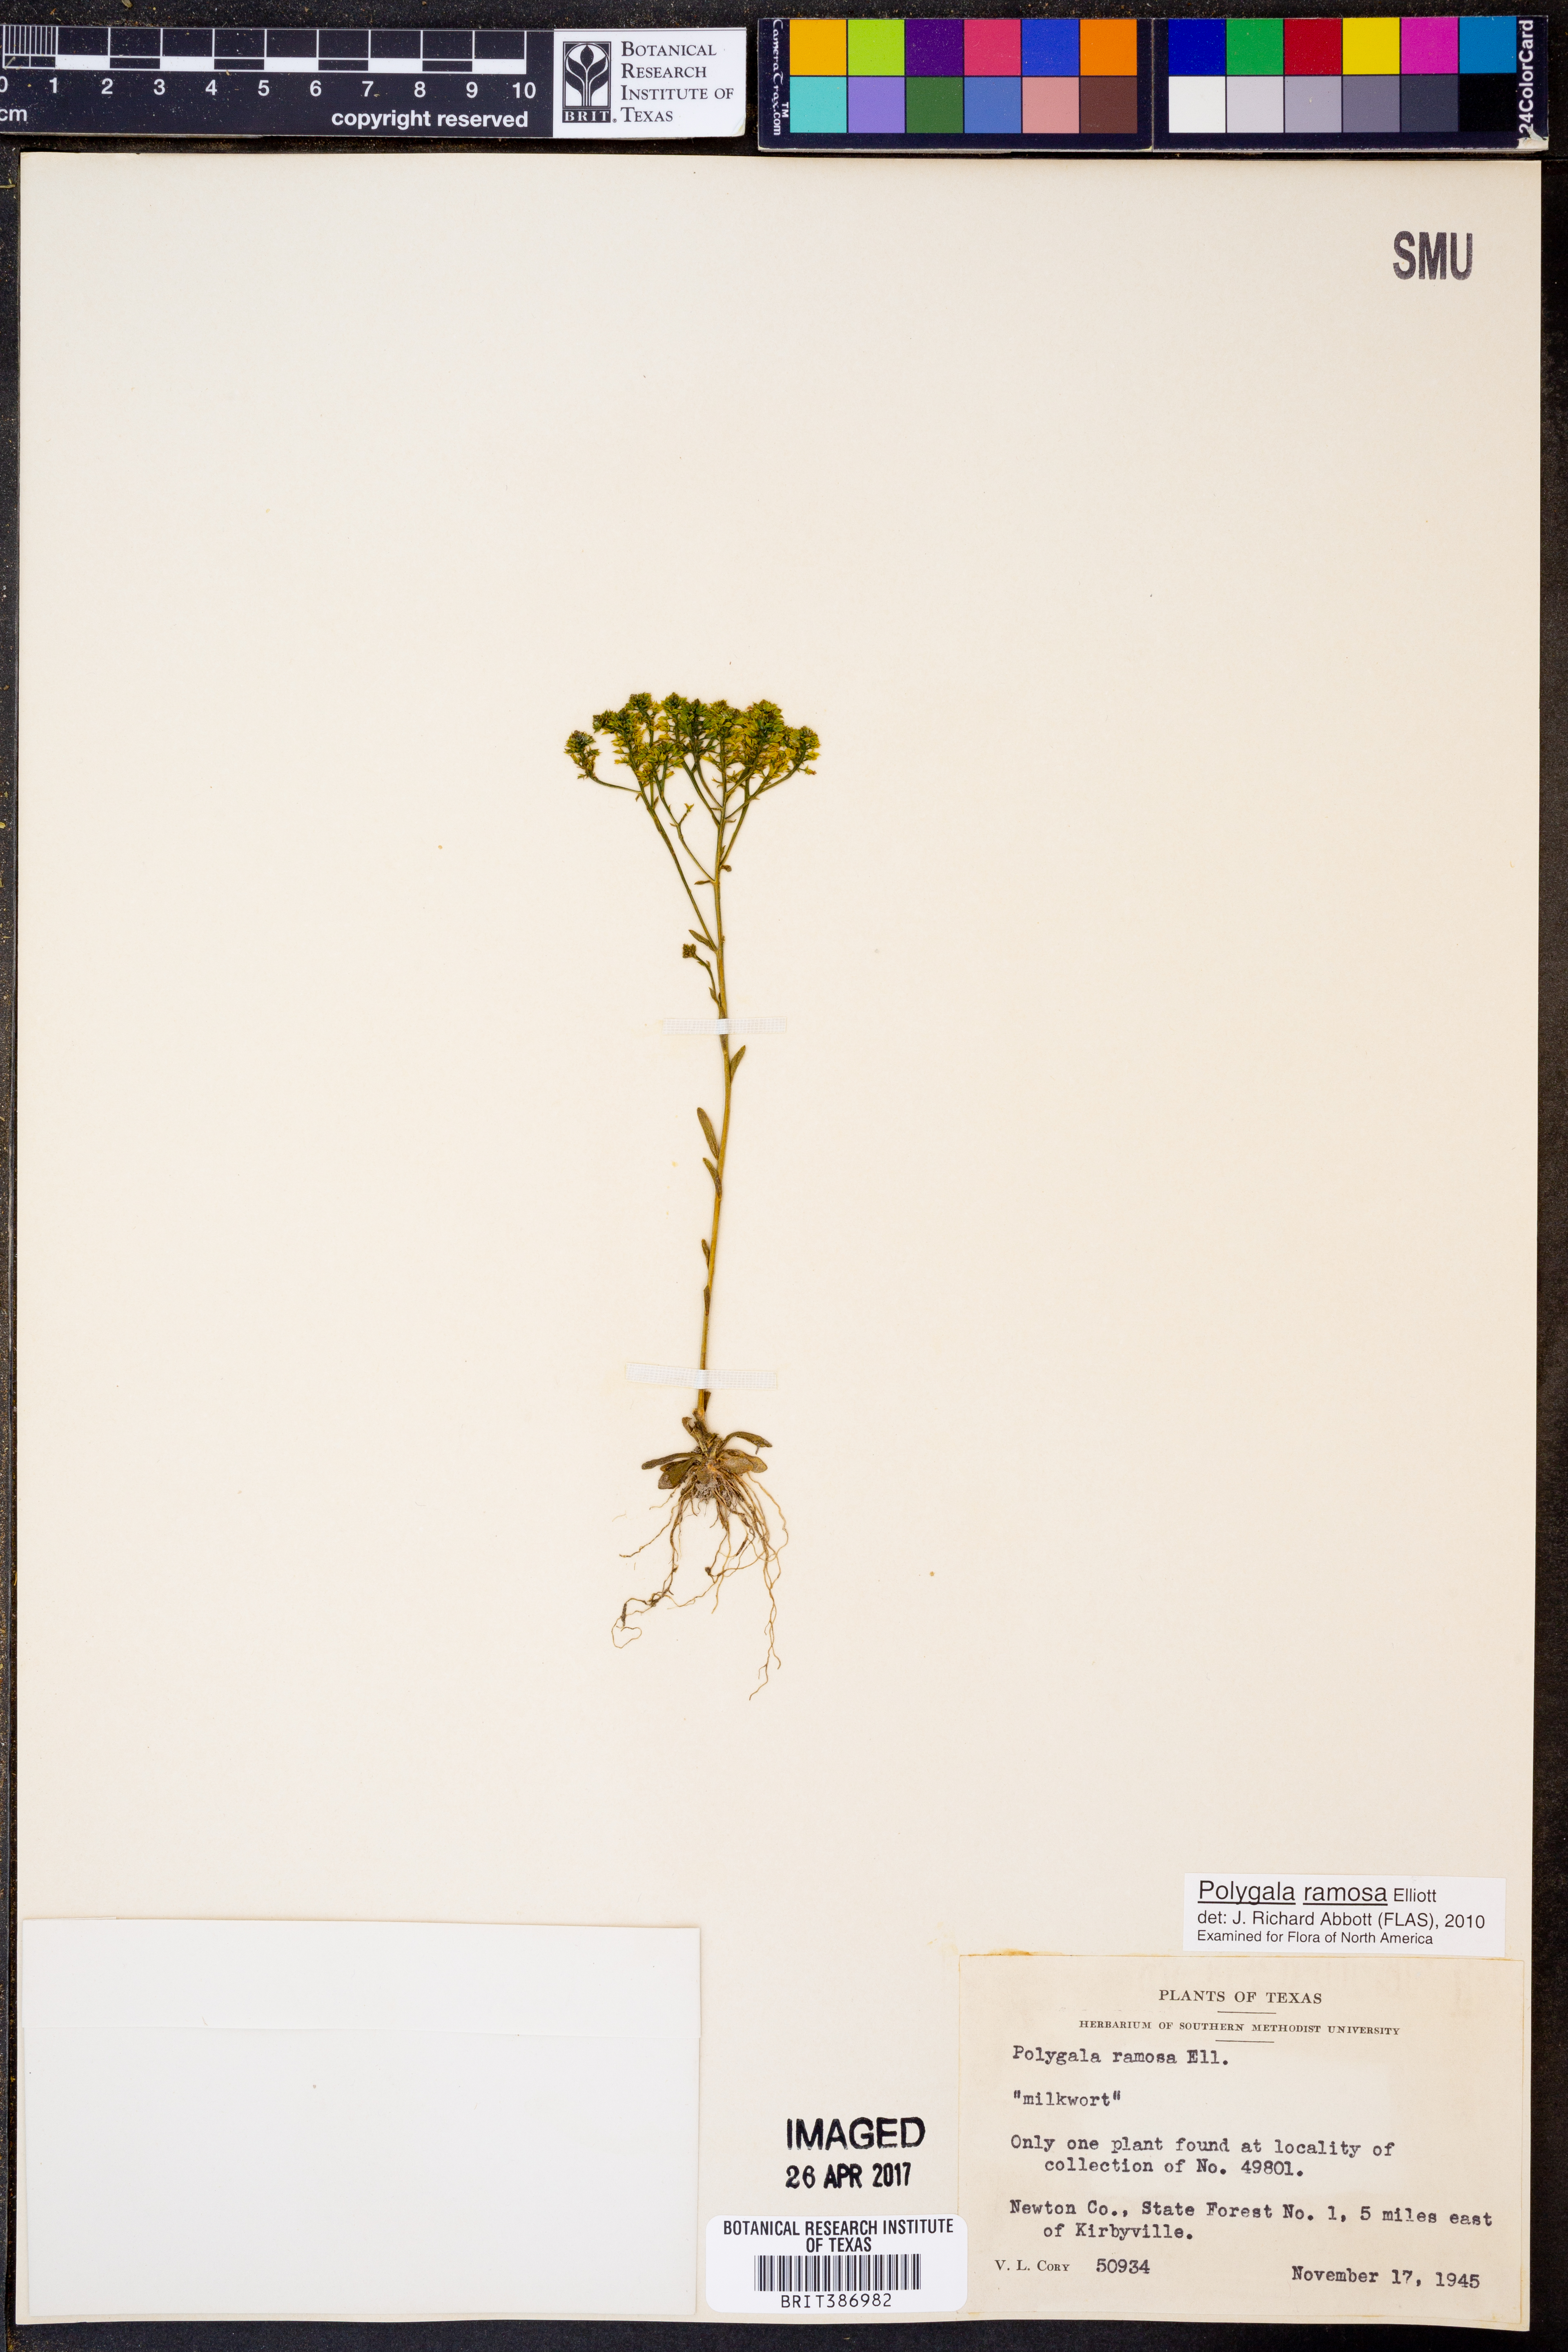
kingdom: Plantae
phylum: Tracheophyta
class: Magnoliopsida
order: Fabales
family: Polygalaceae
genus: Polygala
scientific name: Polygala ramosa
